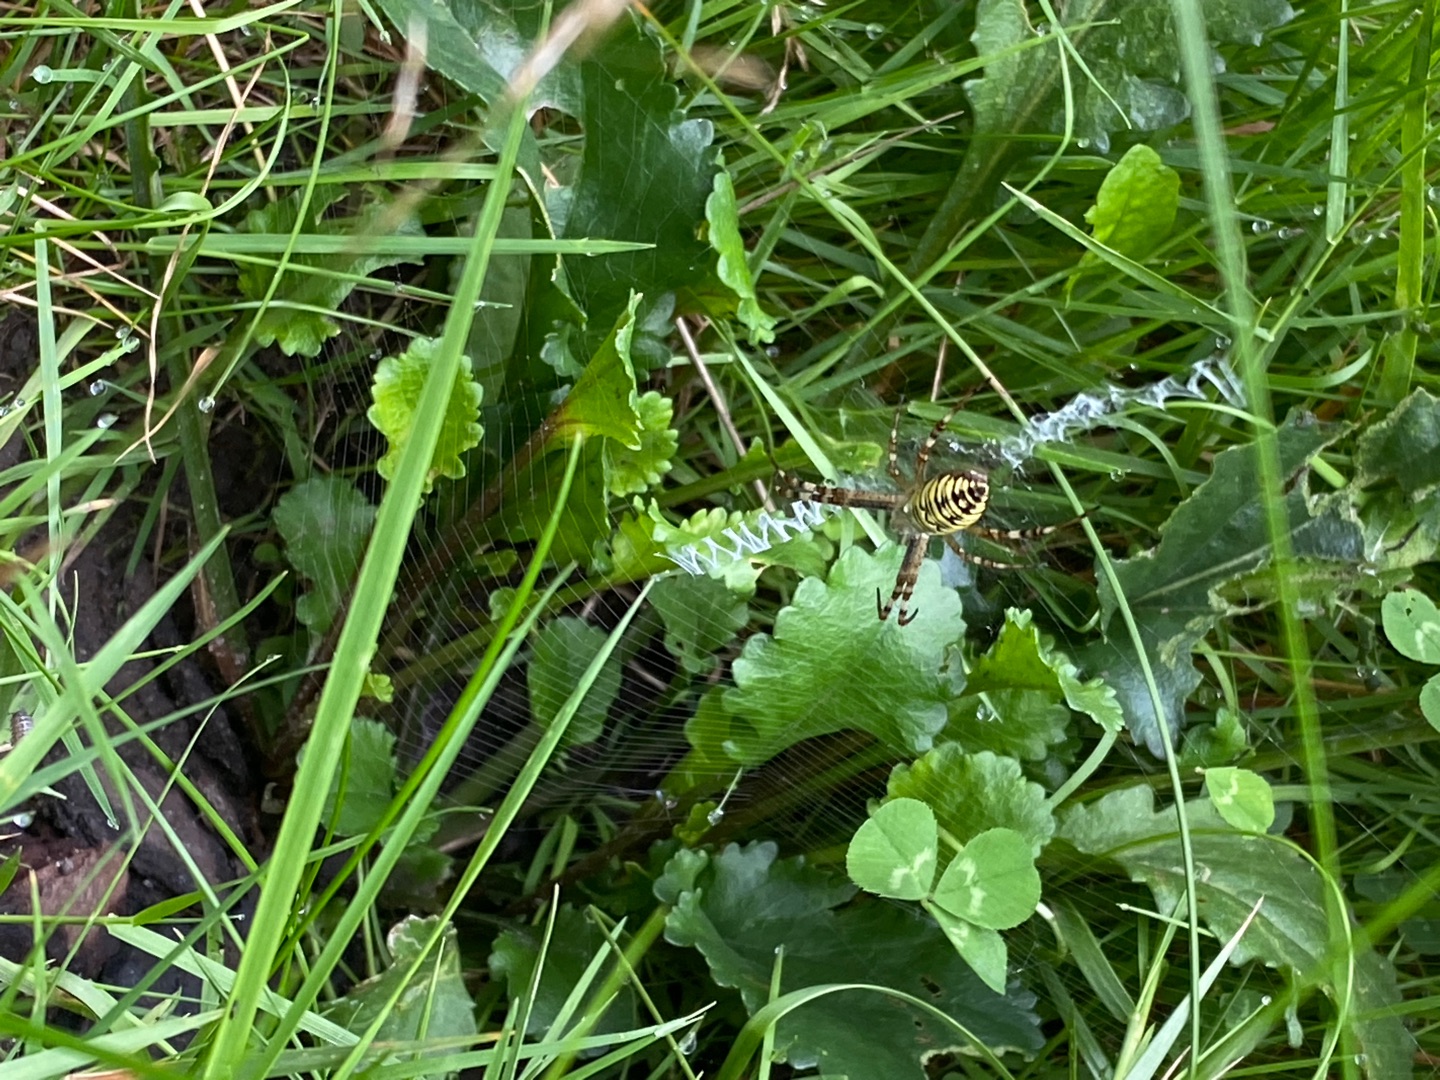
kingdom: Animalia
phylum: Arthropoda
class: Arachnida
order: Araneae
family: Araneidae
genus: Argiope
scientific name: Argiope bruennichi
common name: Hvepseedderkop
